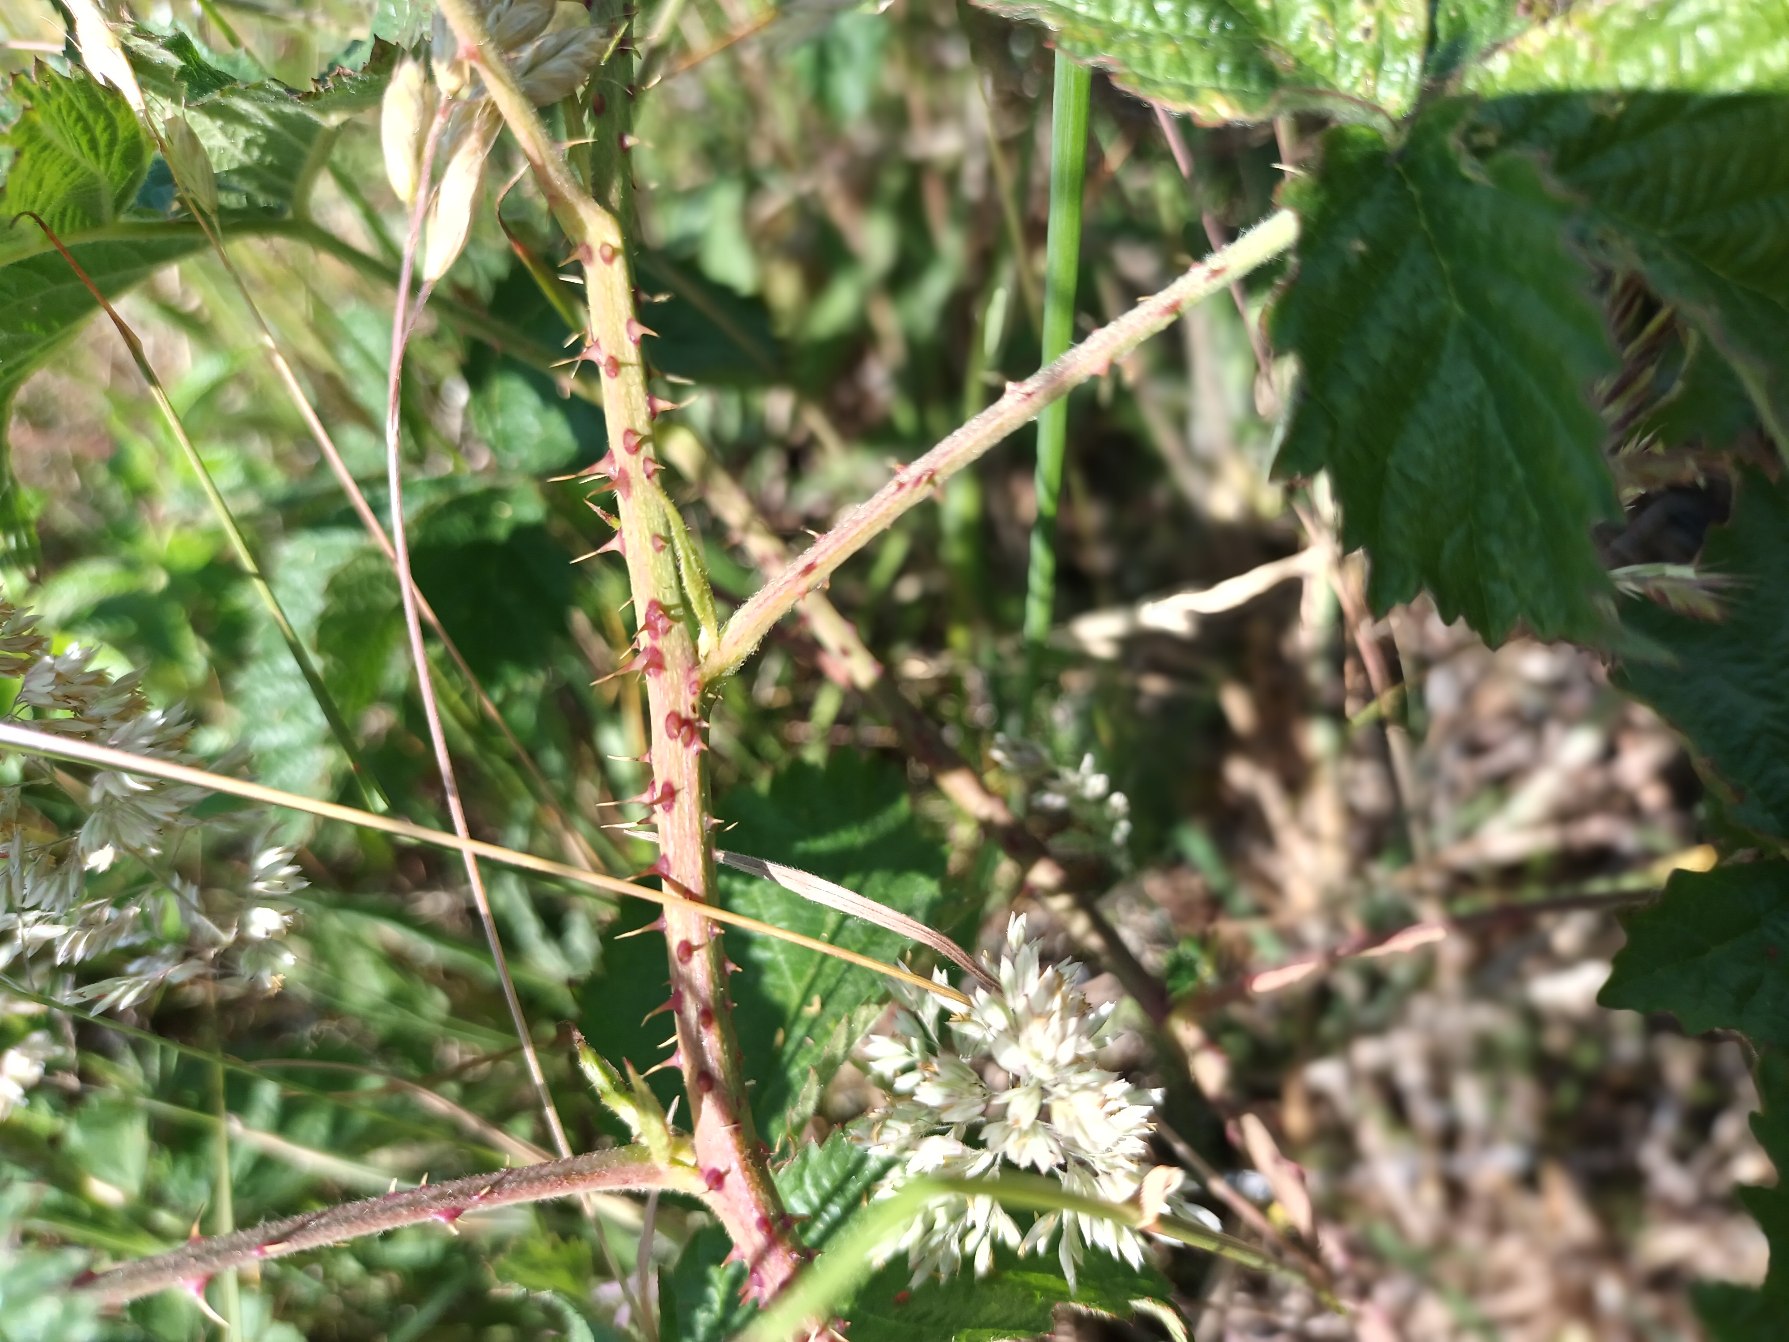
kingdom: Plantae
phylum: Tracheophyta
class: Magnoliopsida
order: Rosales
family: Rosaceae
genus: Rubus
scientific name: Rubus
